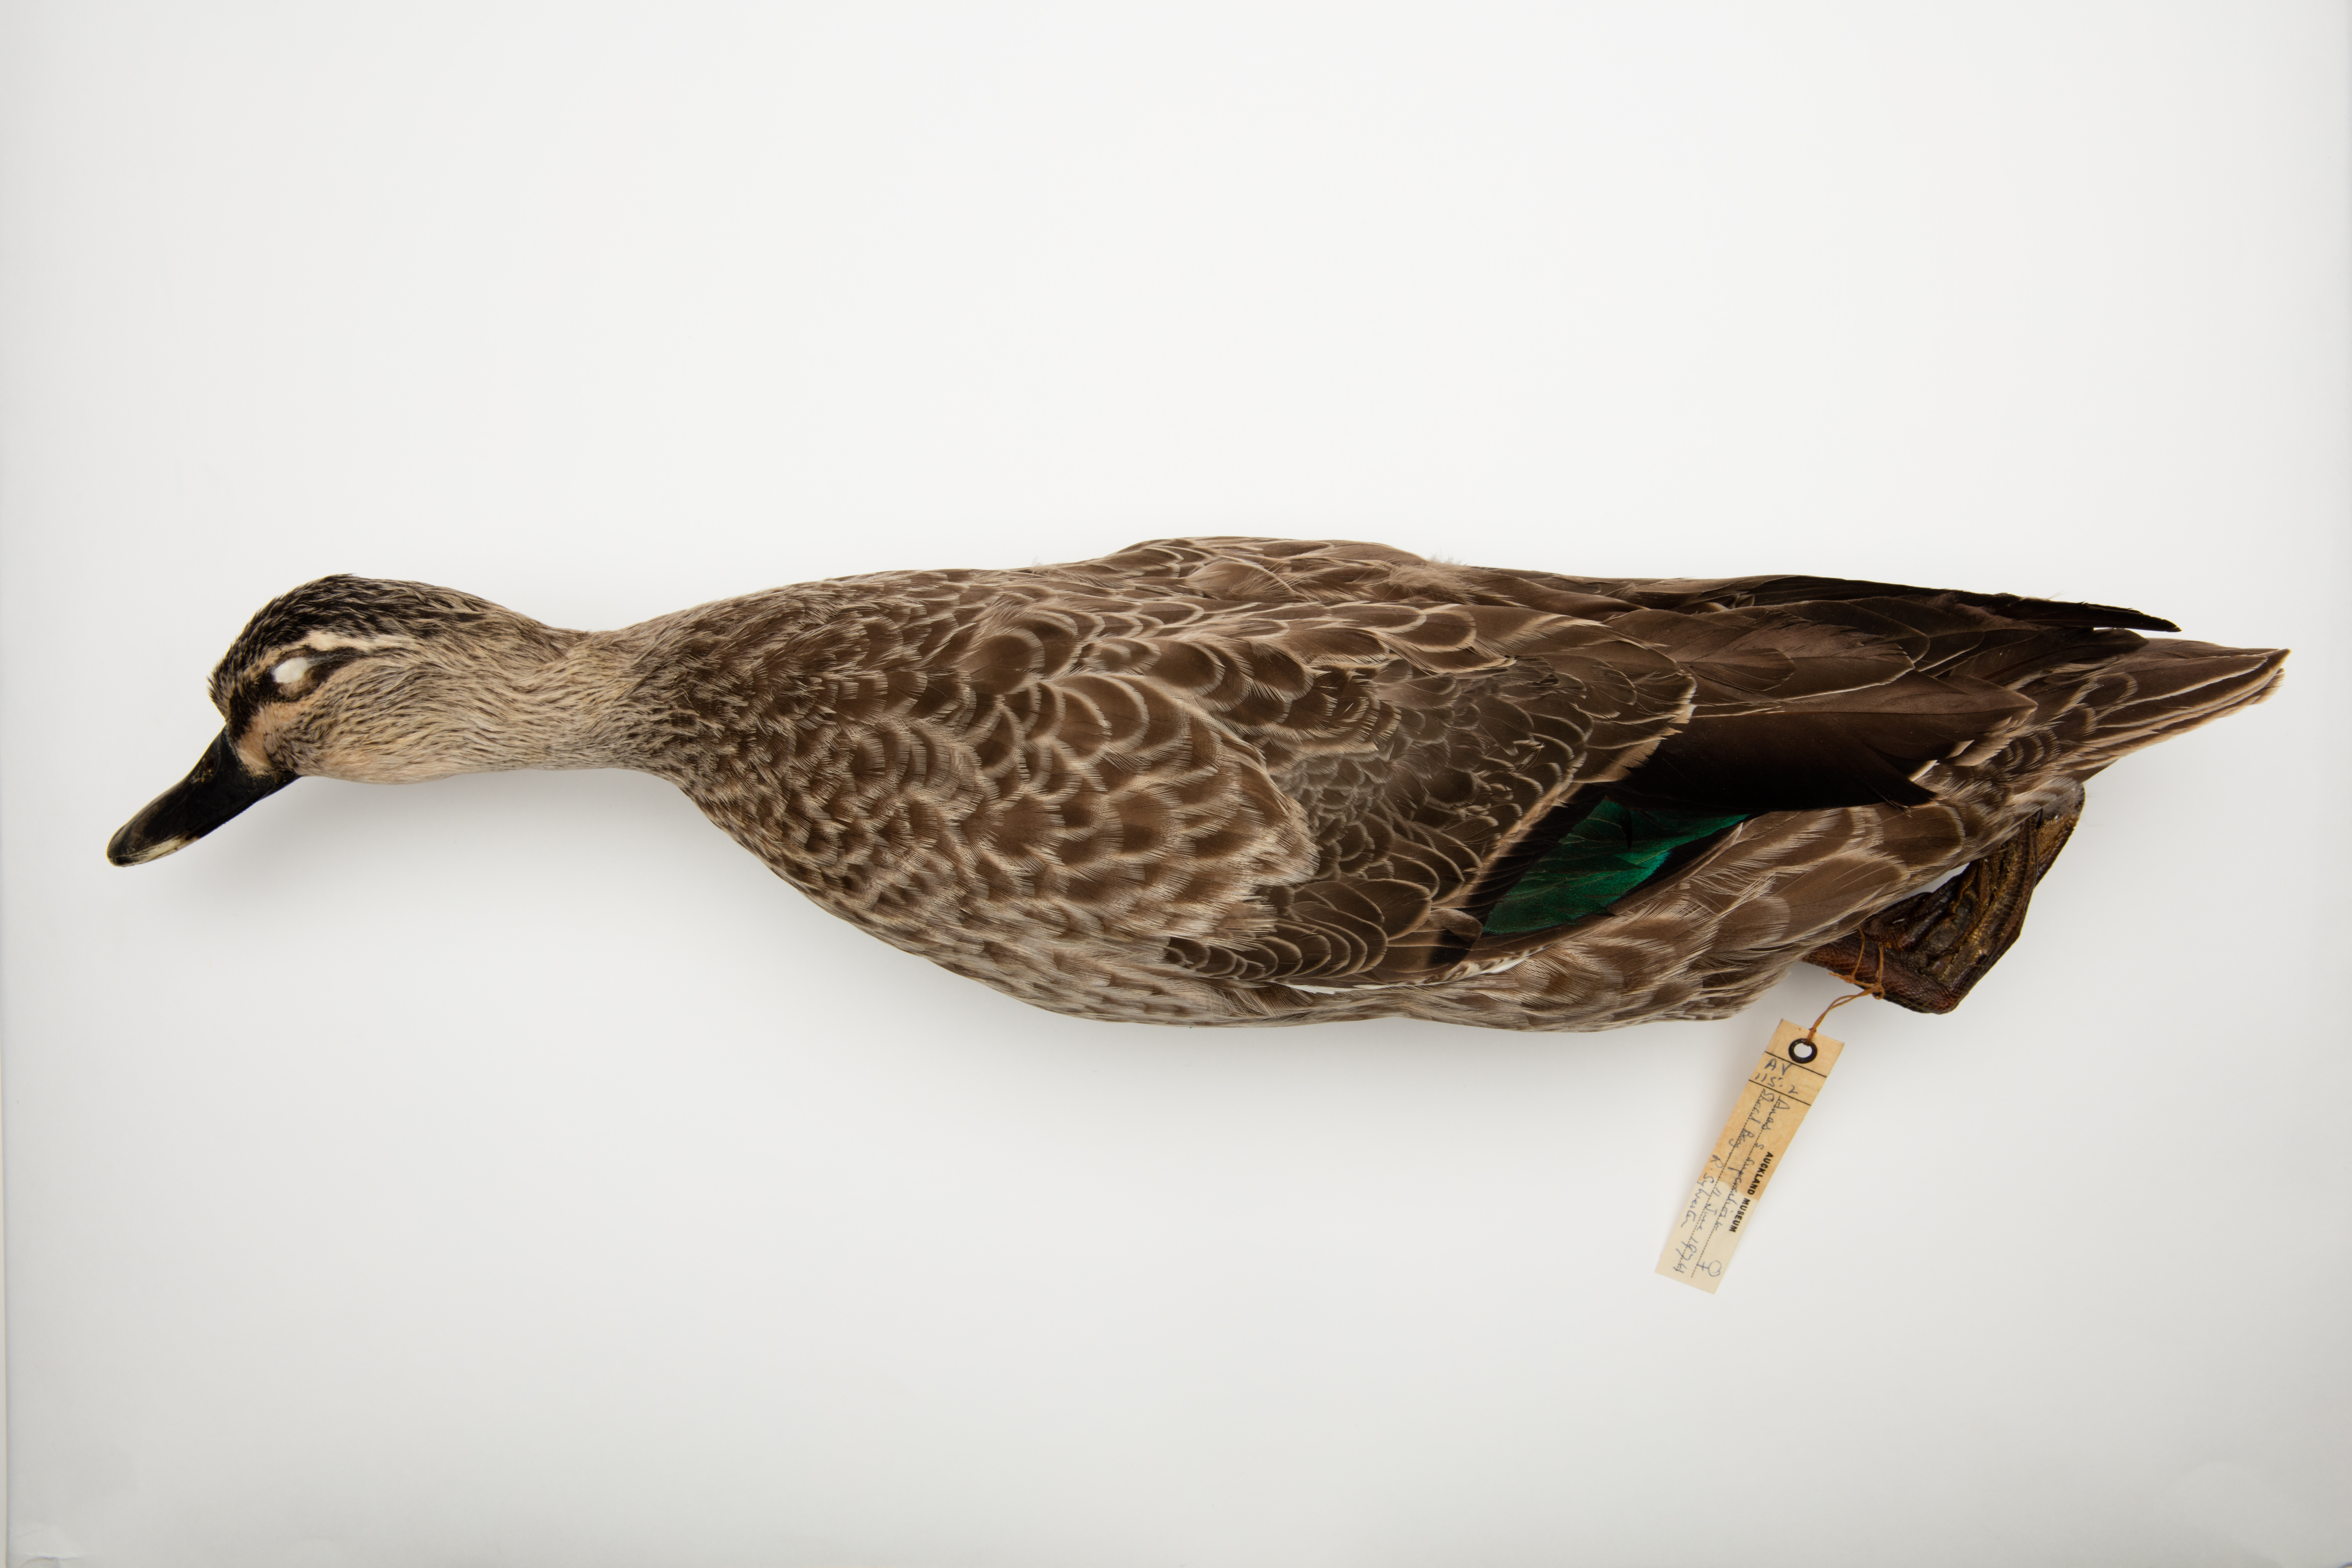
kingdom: Animalia
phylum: Chordata
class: Aves
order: Anseriformes
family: Anatidae
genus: Anas
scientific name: Anas superciliosa
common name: Pacific black duck
